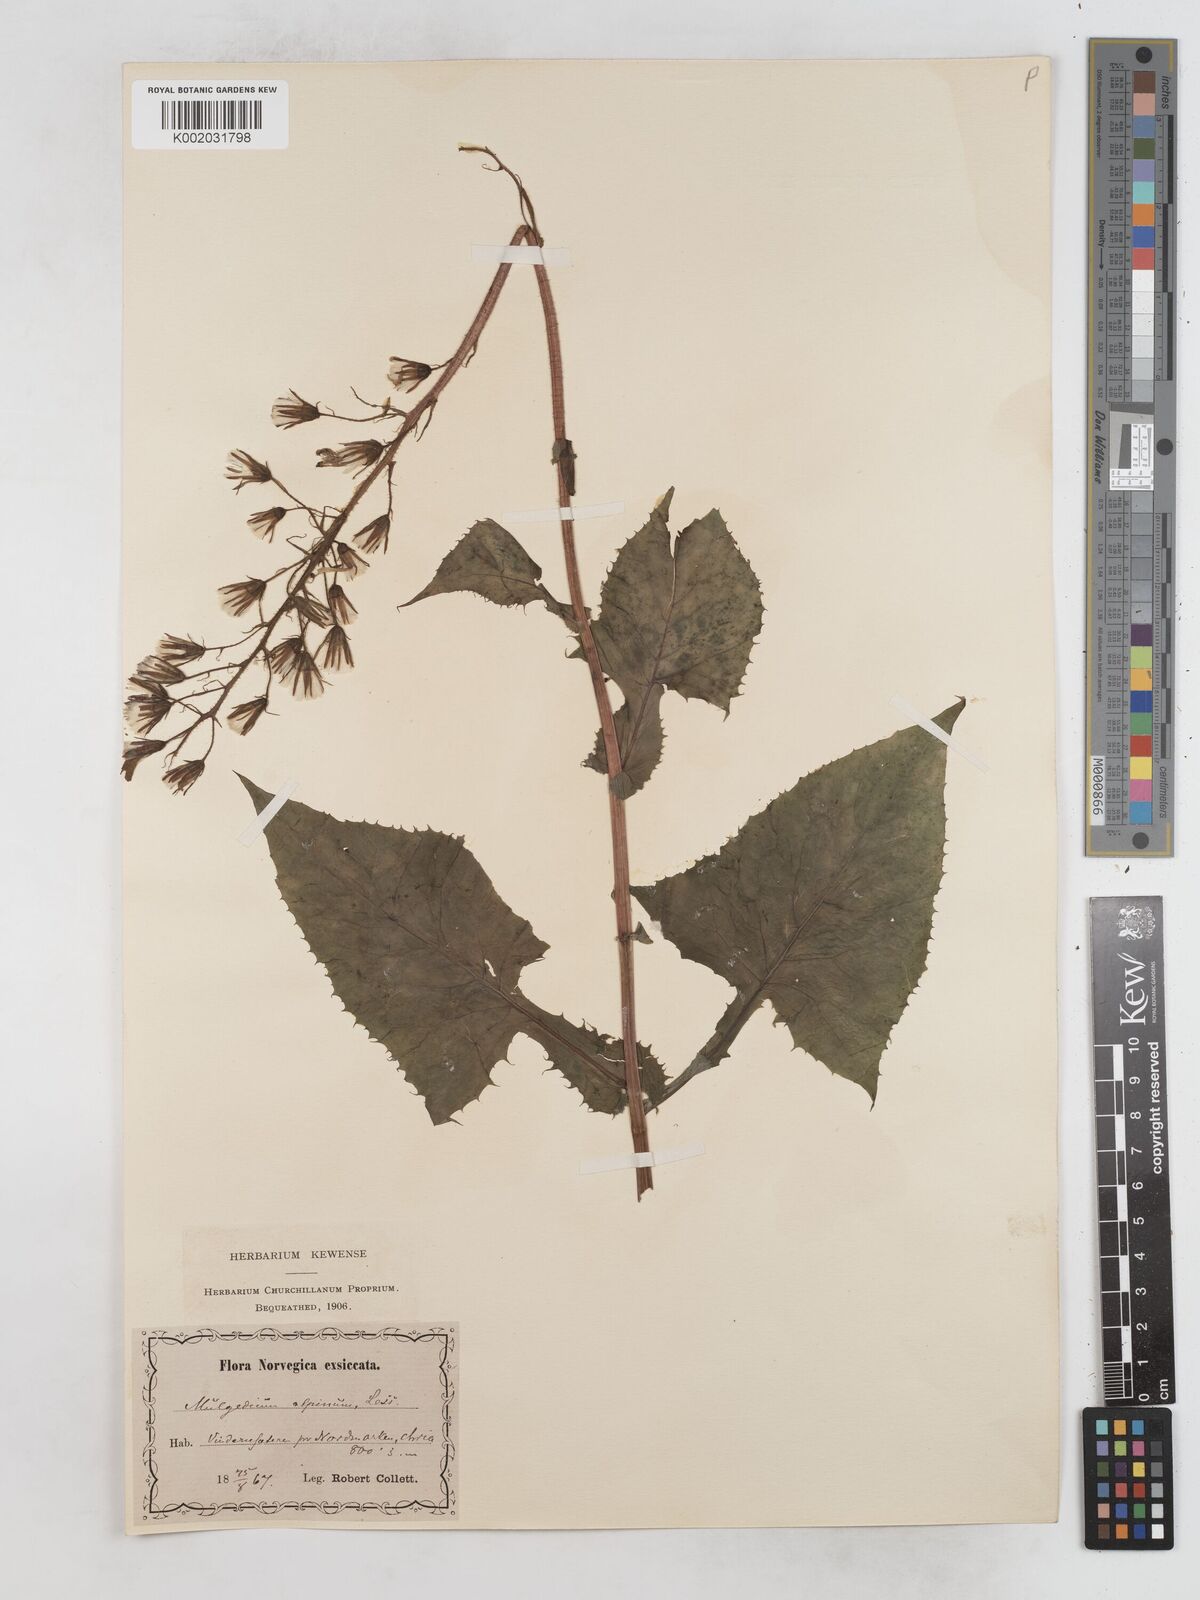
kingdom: Plantae
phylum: Tracheophyta
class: Magnoliopsida
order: Asterales
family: Asteraceae
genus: Cicerbita
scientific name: Cicerbita alpina
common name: Alpine blue-sow-thistle
